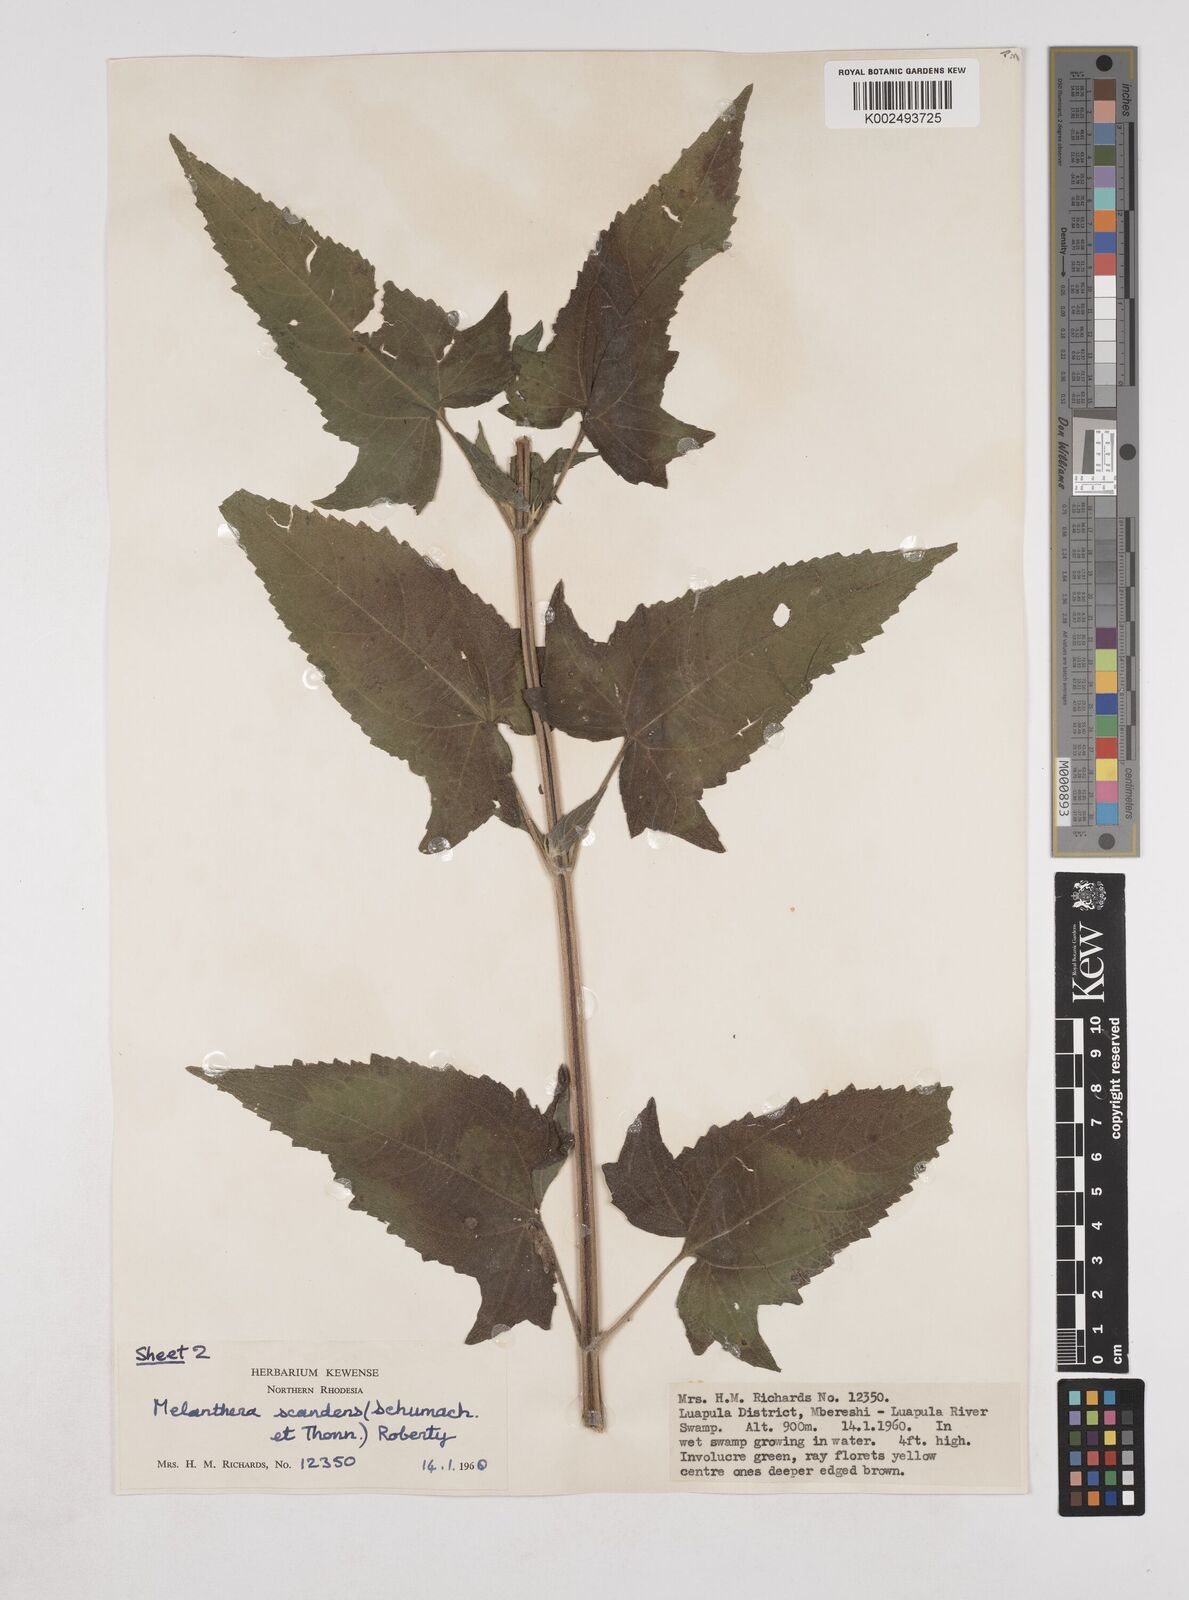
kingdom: Plantae
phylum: Tracheophyta
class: Magnoliopsida
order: Asterales
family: Asteraceae
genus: Lipotriche
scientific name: Lipotriche scandens
